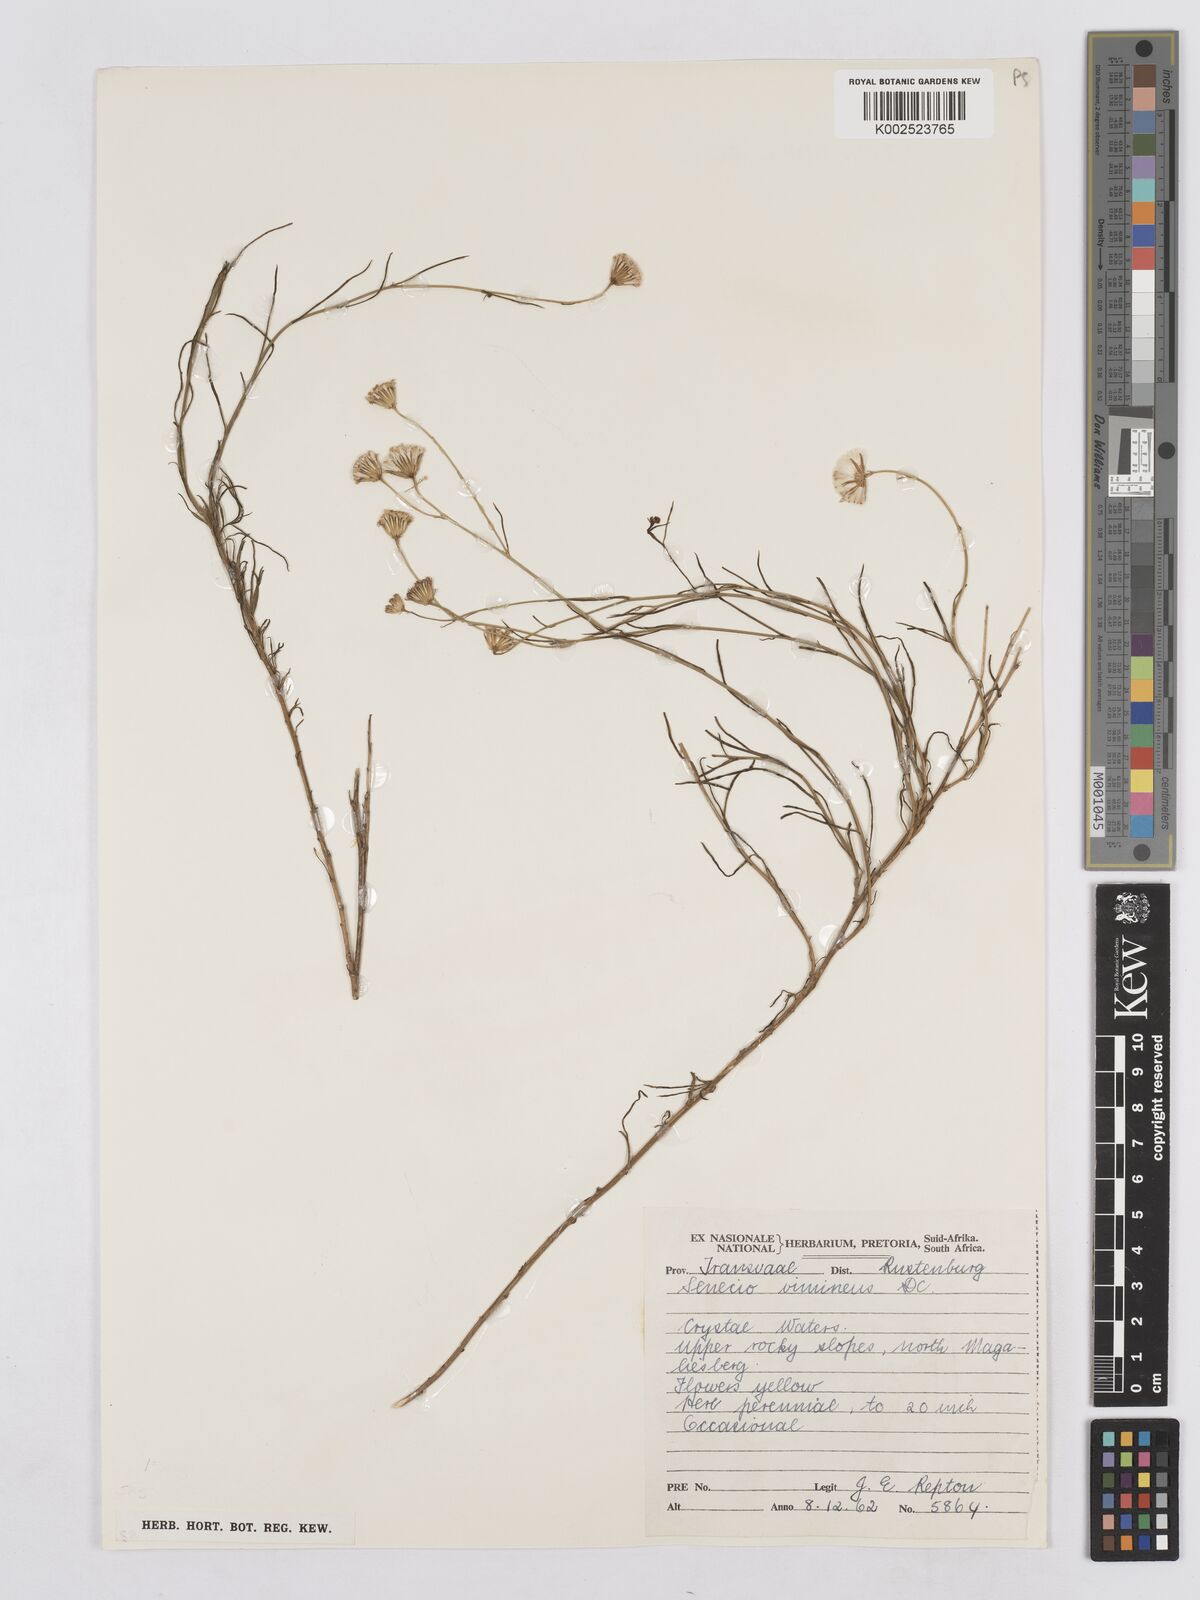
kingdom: Plantae
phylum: Tracheophyta
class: Magnoliopsida
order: Asterales
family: Asteraceae
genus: Senecio
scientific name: Senecio vimineus
